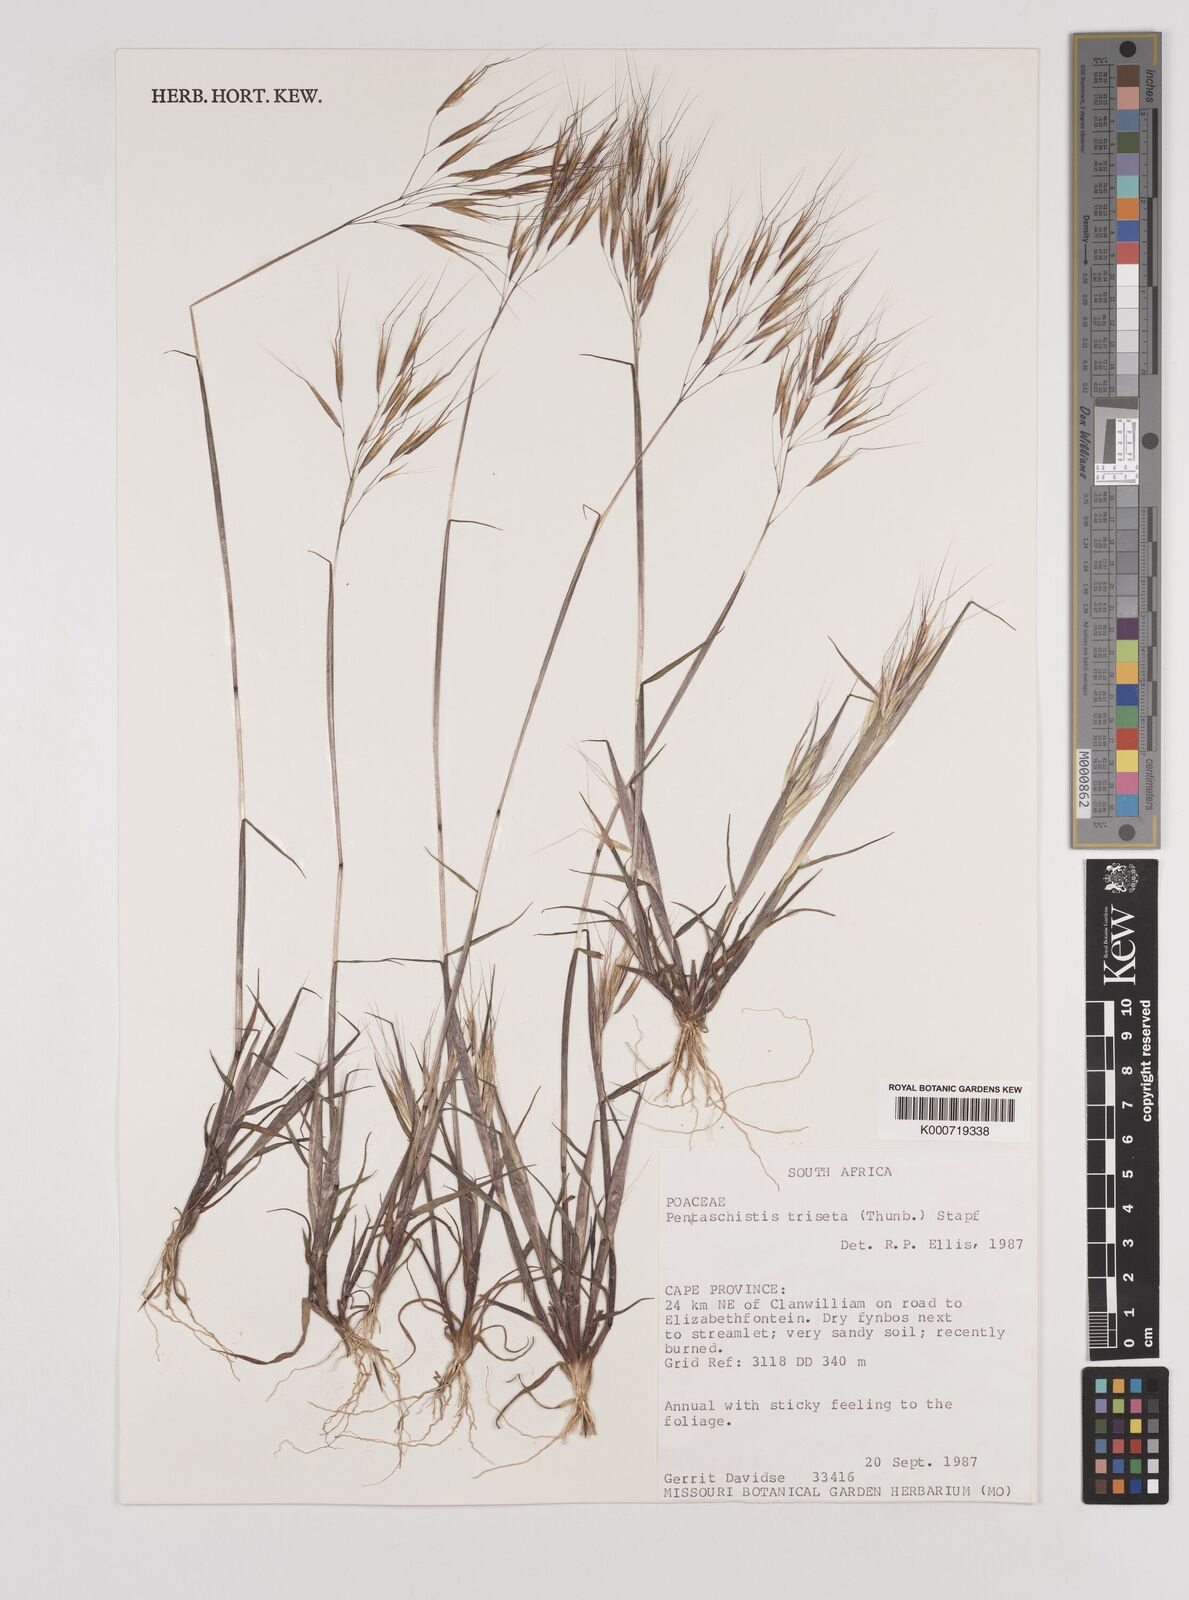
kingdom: Plantae
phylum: Tracheophyta
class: Liliopsida
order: Poales
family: Poaceae
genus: Pentameris
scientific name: Pentameris triseta
